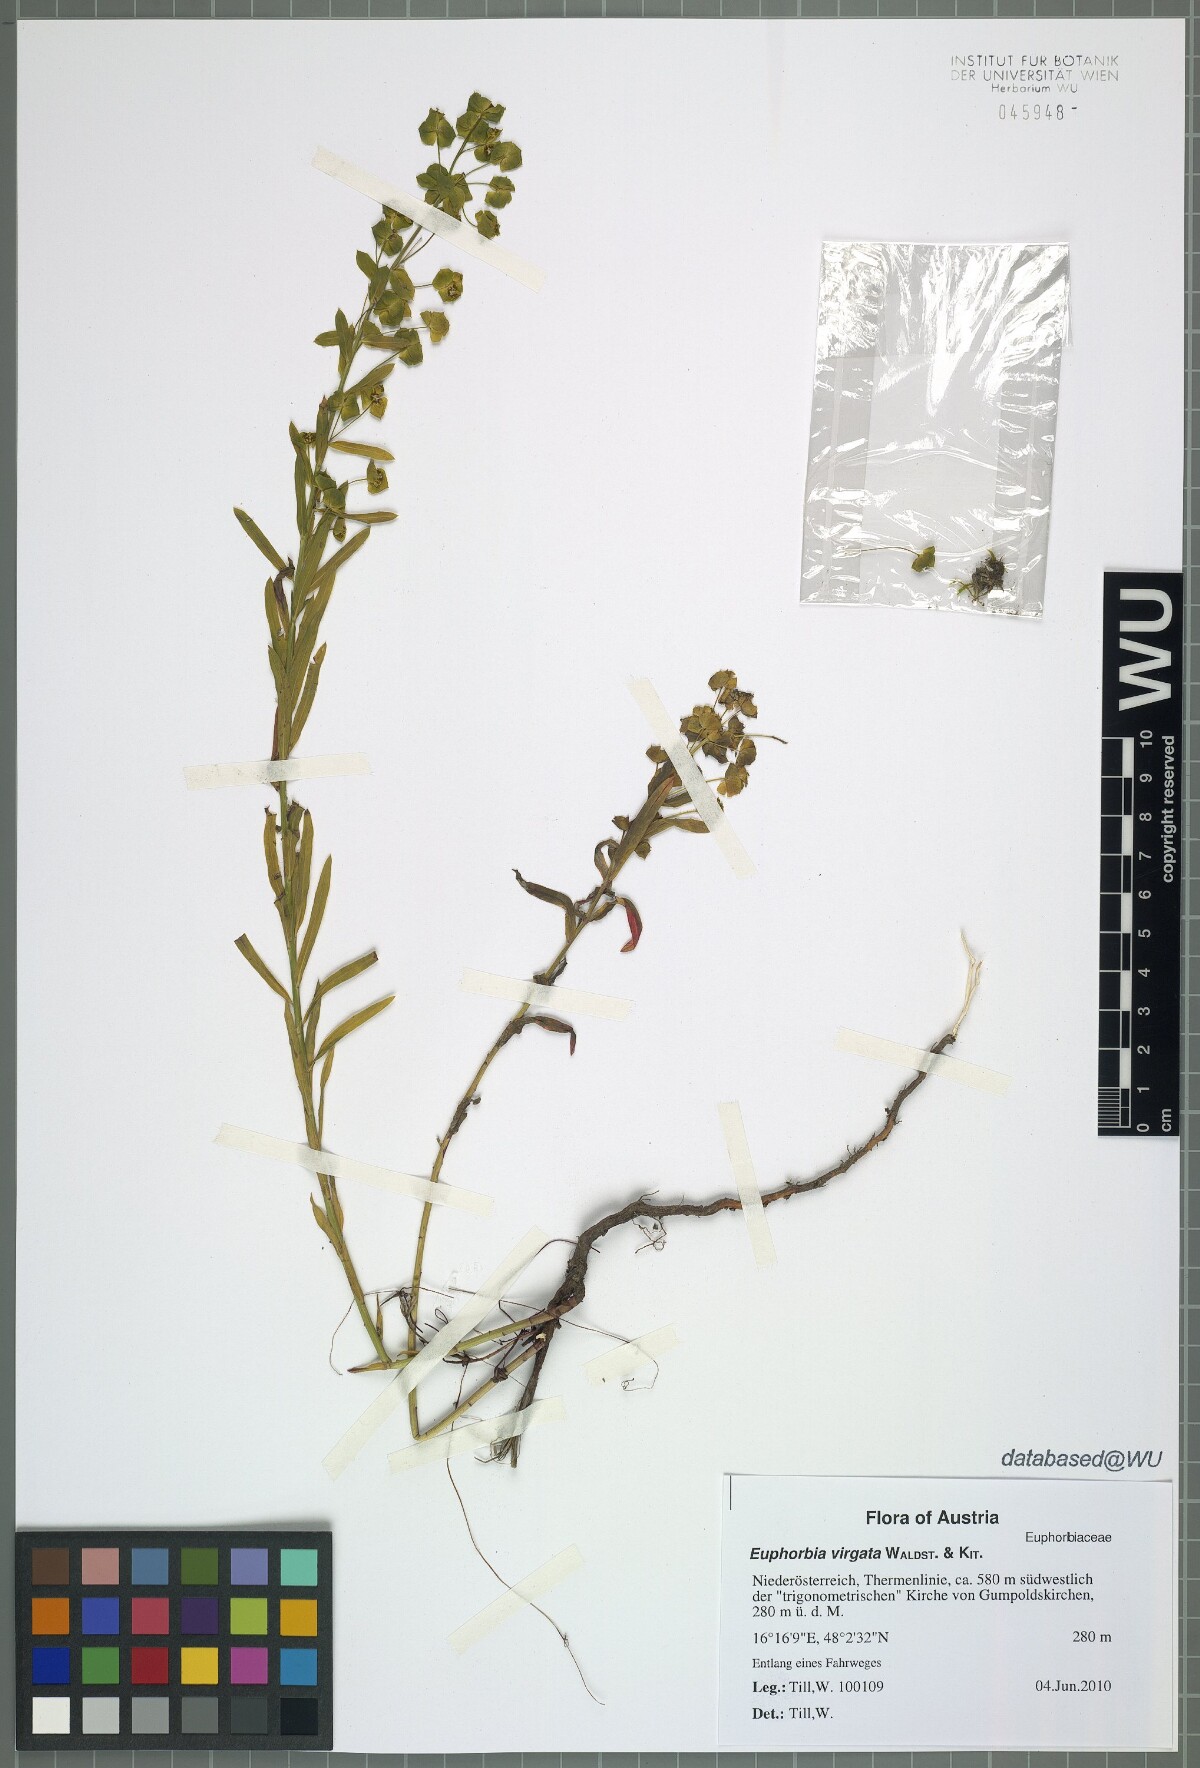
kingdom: Plantae
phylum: Tracheophyta
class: Magnoliopsida
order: Malpighiales
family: Euphorbiaceae
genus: Euphorbia
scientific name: Euphorbia virgata
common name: Leafy spurge
